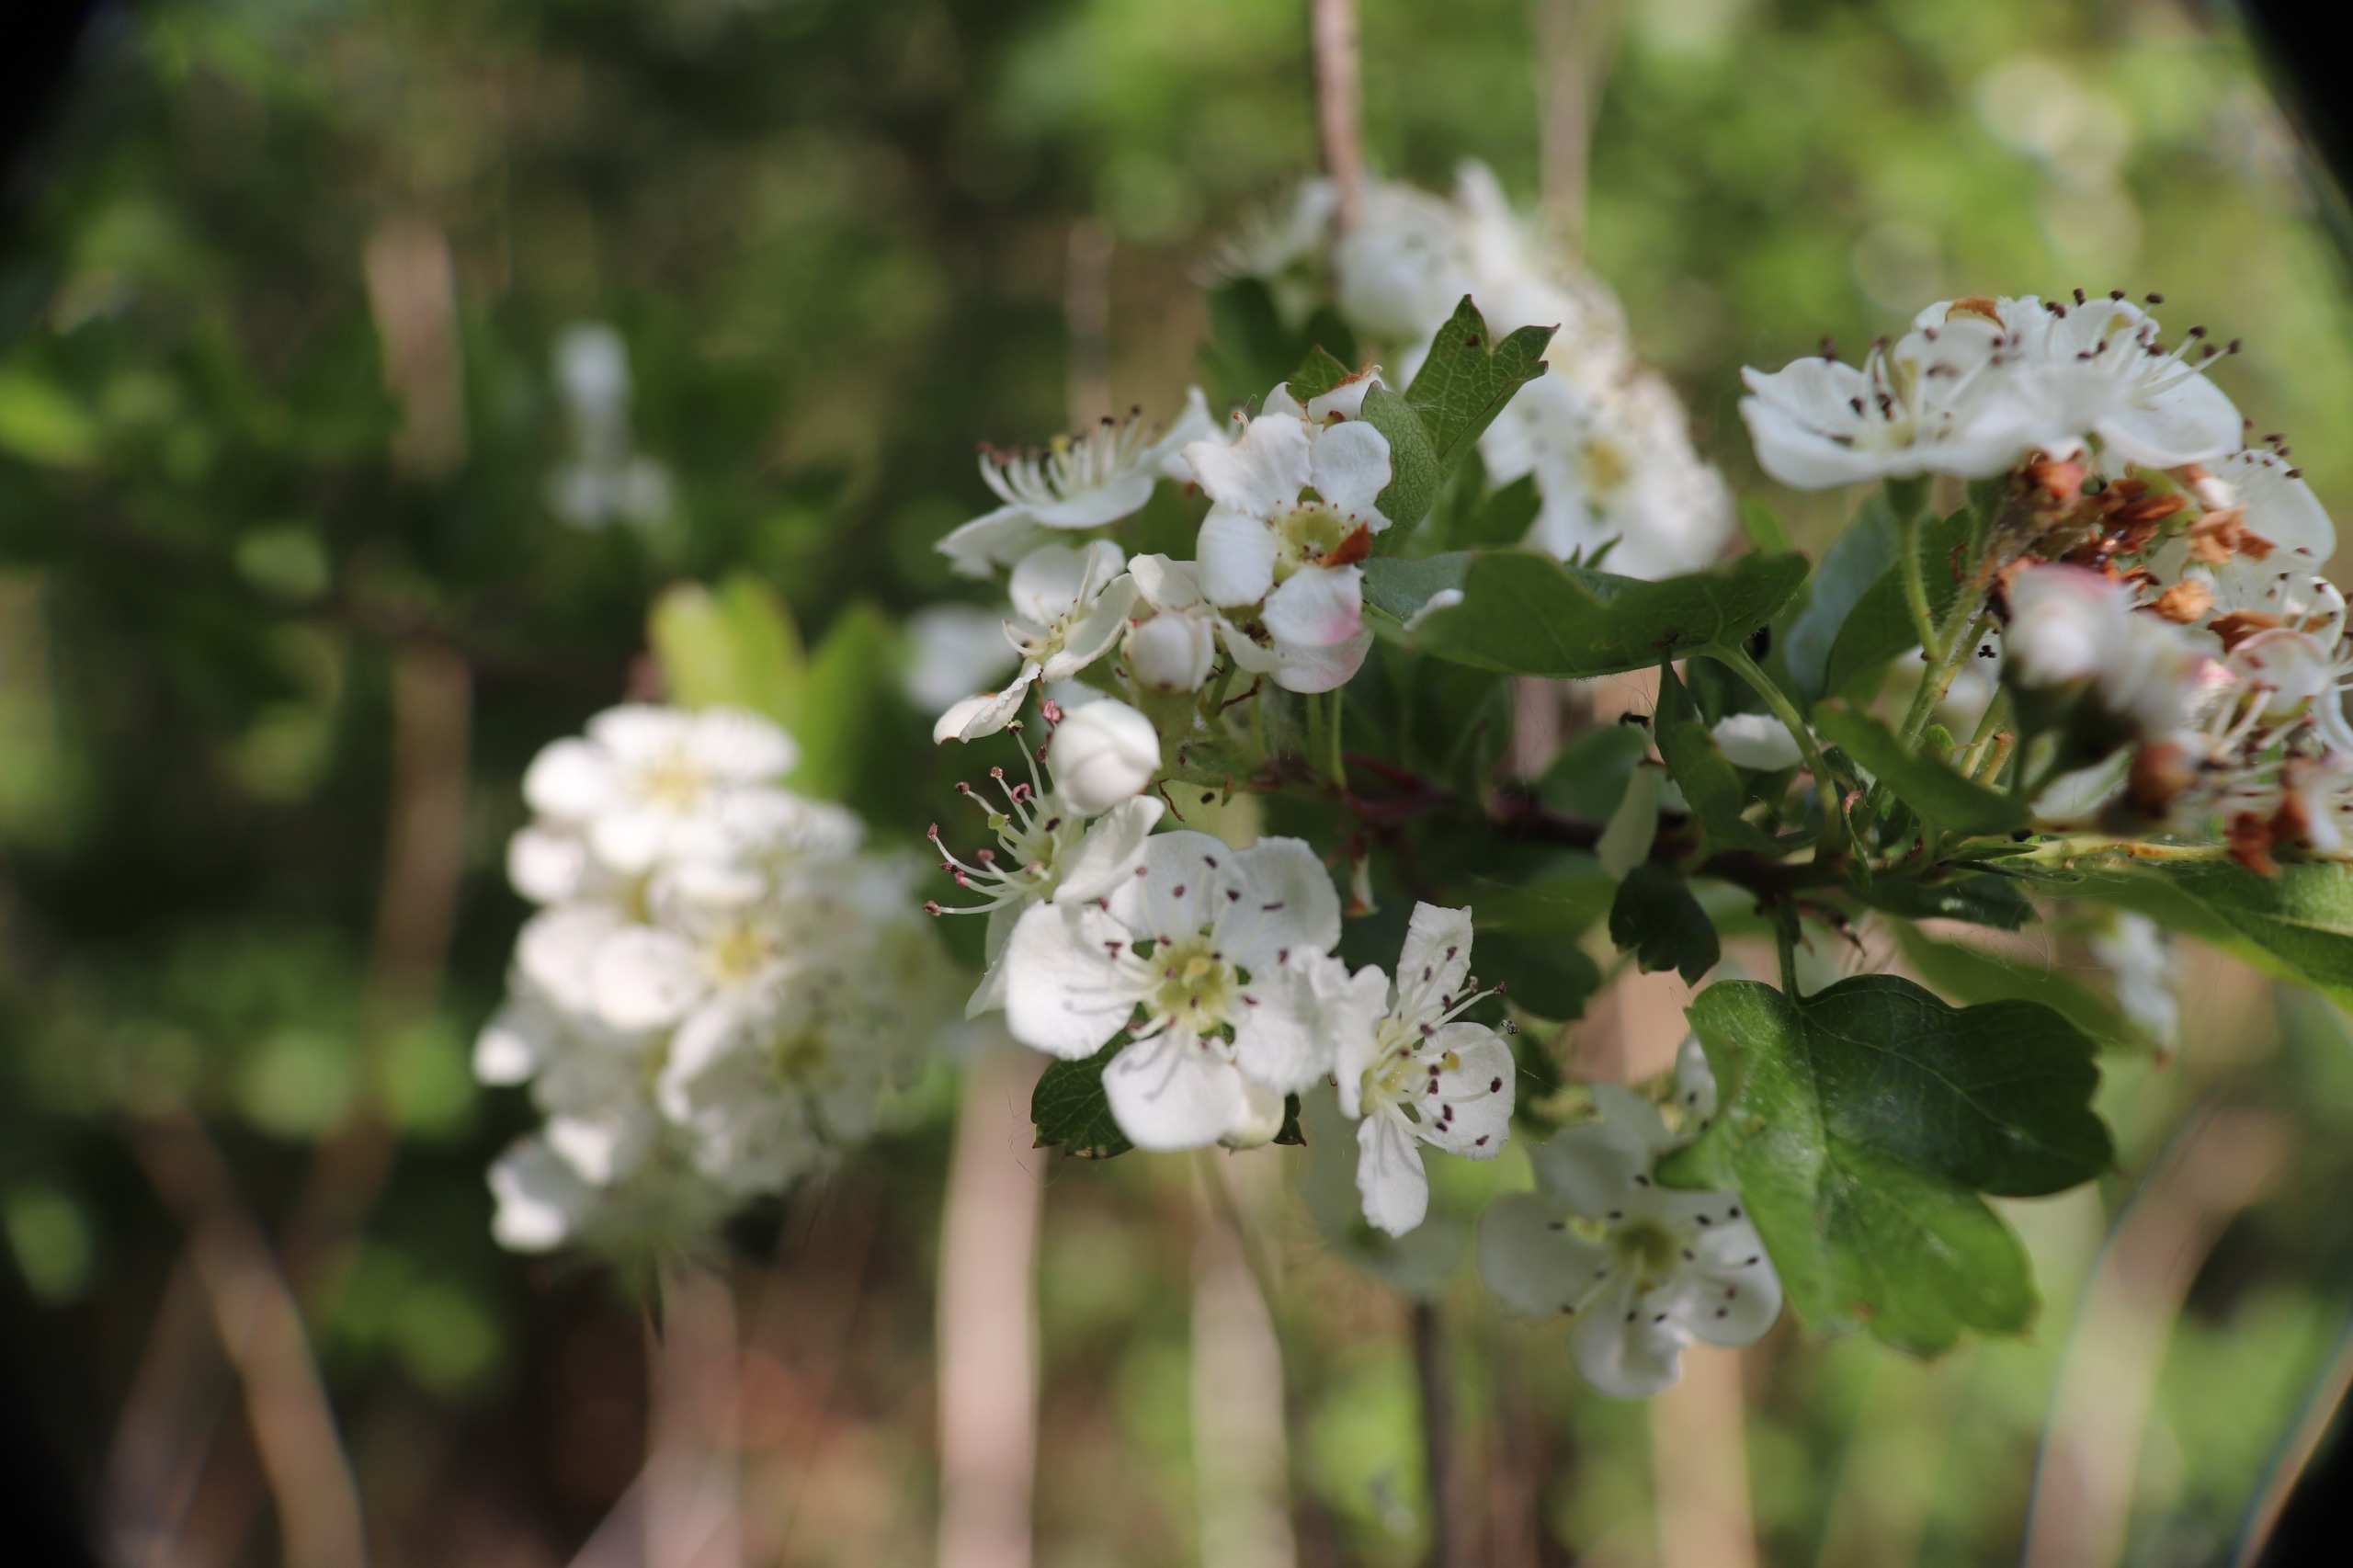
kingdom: Plantae
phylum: Tracheophyta
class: Magnoliopsida
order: Rosales
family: Rosaceae
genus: Crataegus
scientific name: Crataegus monogyna
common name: Engriflet hvidtjørn
